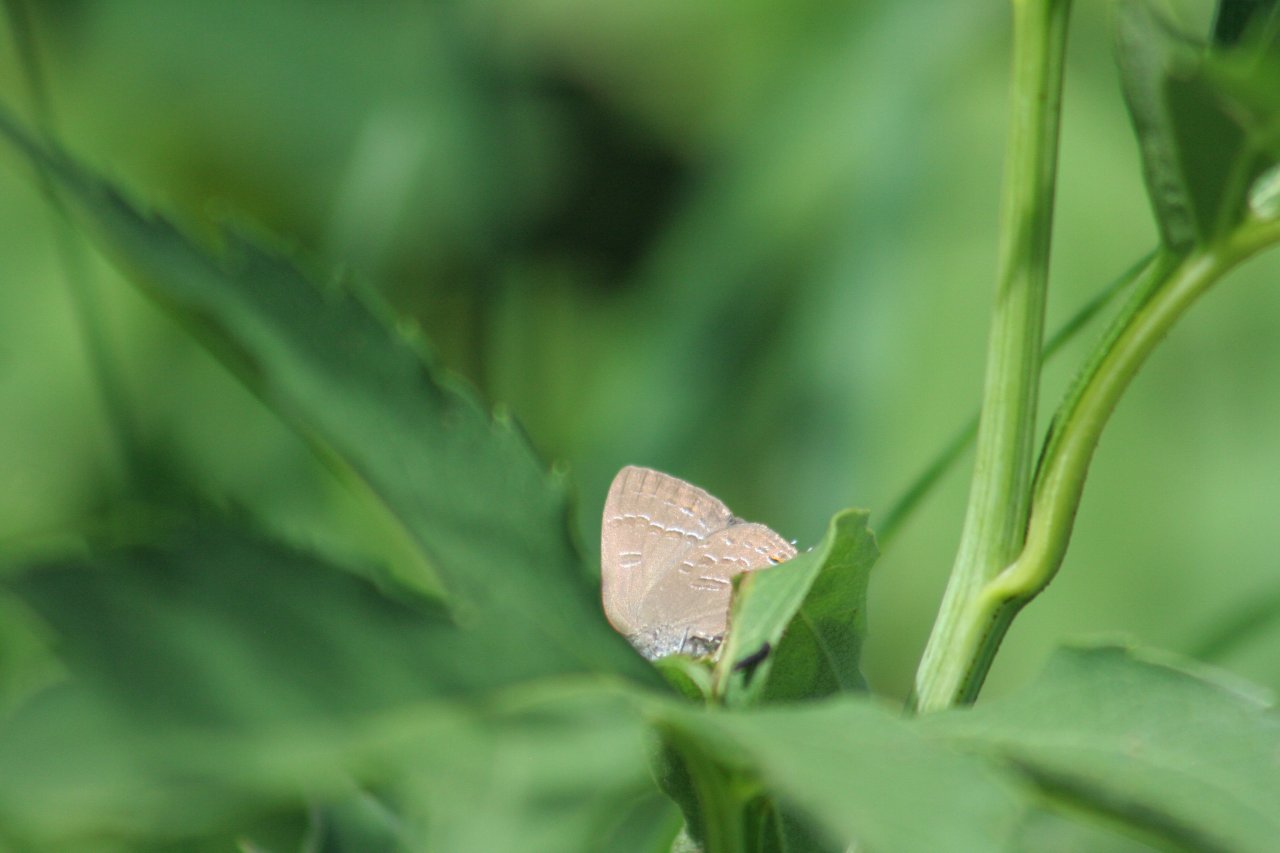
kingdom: Animalia
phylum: Arthropoda
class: Insecta
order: Lepidoptera
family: Lycaenidae
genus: Satyrium
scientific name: Satyrium calanus
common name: Banded Hairstreak
